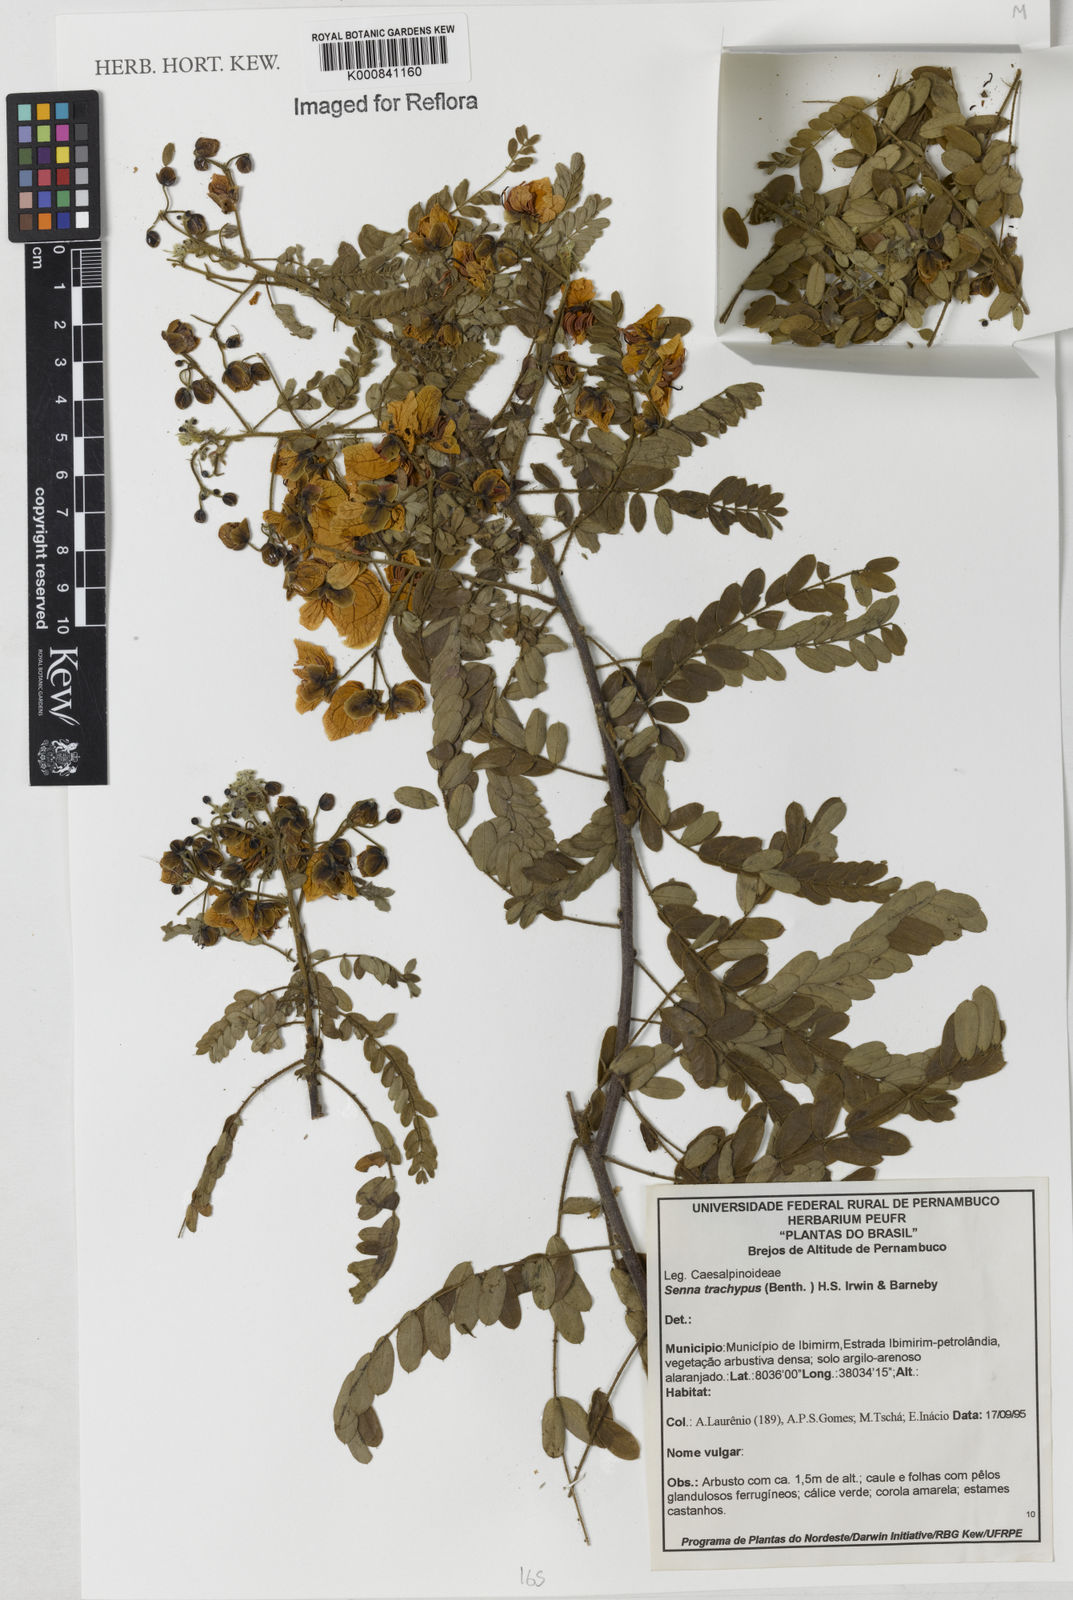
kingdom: Plantae
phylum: Tracheophyta
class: Magnoliopsida
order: Fabales
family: Fabaceae
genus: Senna
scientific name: Senna trachypus
